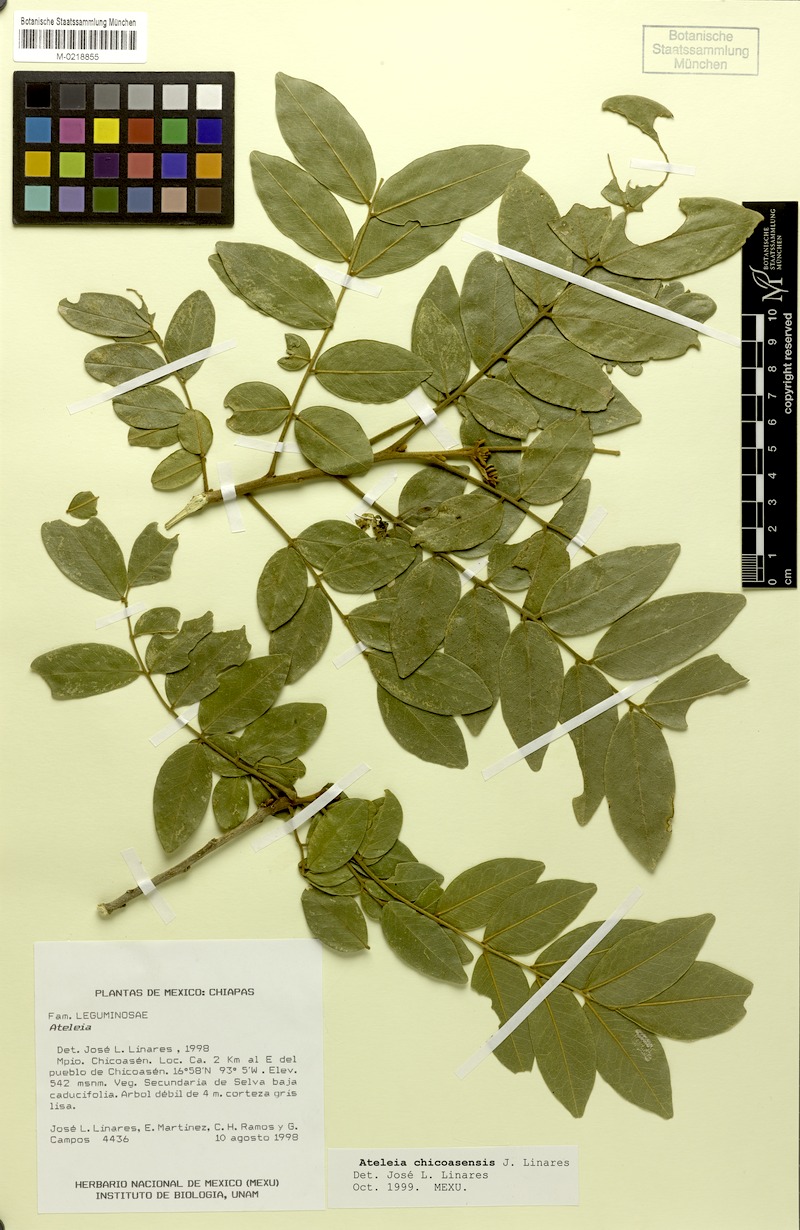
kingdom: Plantae
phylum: Tracheophyta
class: Magnoliopsida
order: Fabales
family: Fabaceae
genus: Ateleia
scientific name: Ateleia chicoasensis
